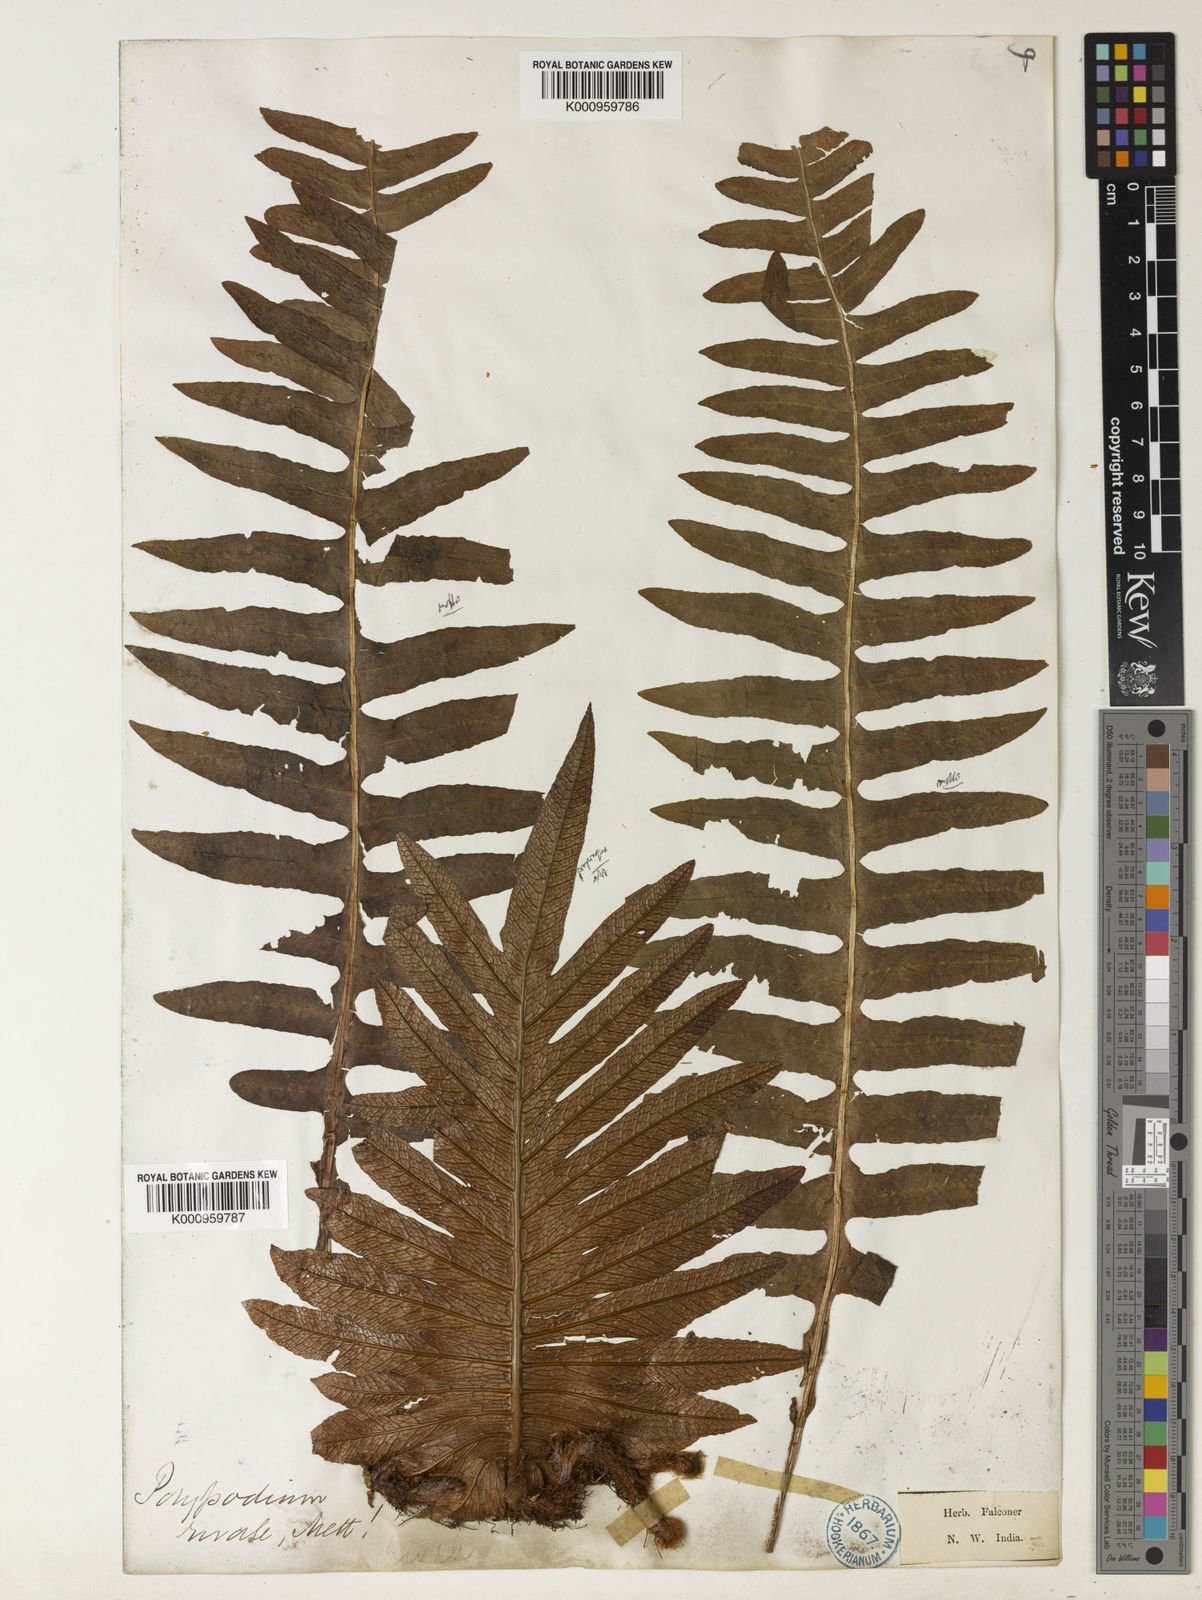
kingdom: Plantae
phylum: Tracheophyta
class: Polypodiopsida
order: Polypodiales
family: Polypodiaceae
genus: Drynaria
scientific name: Drynaria mollis
